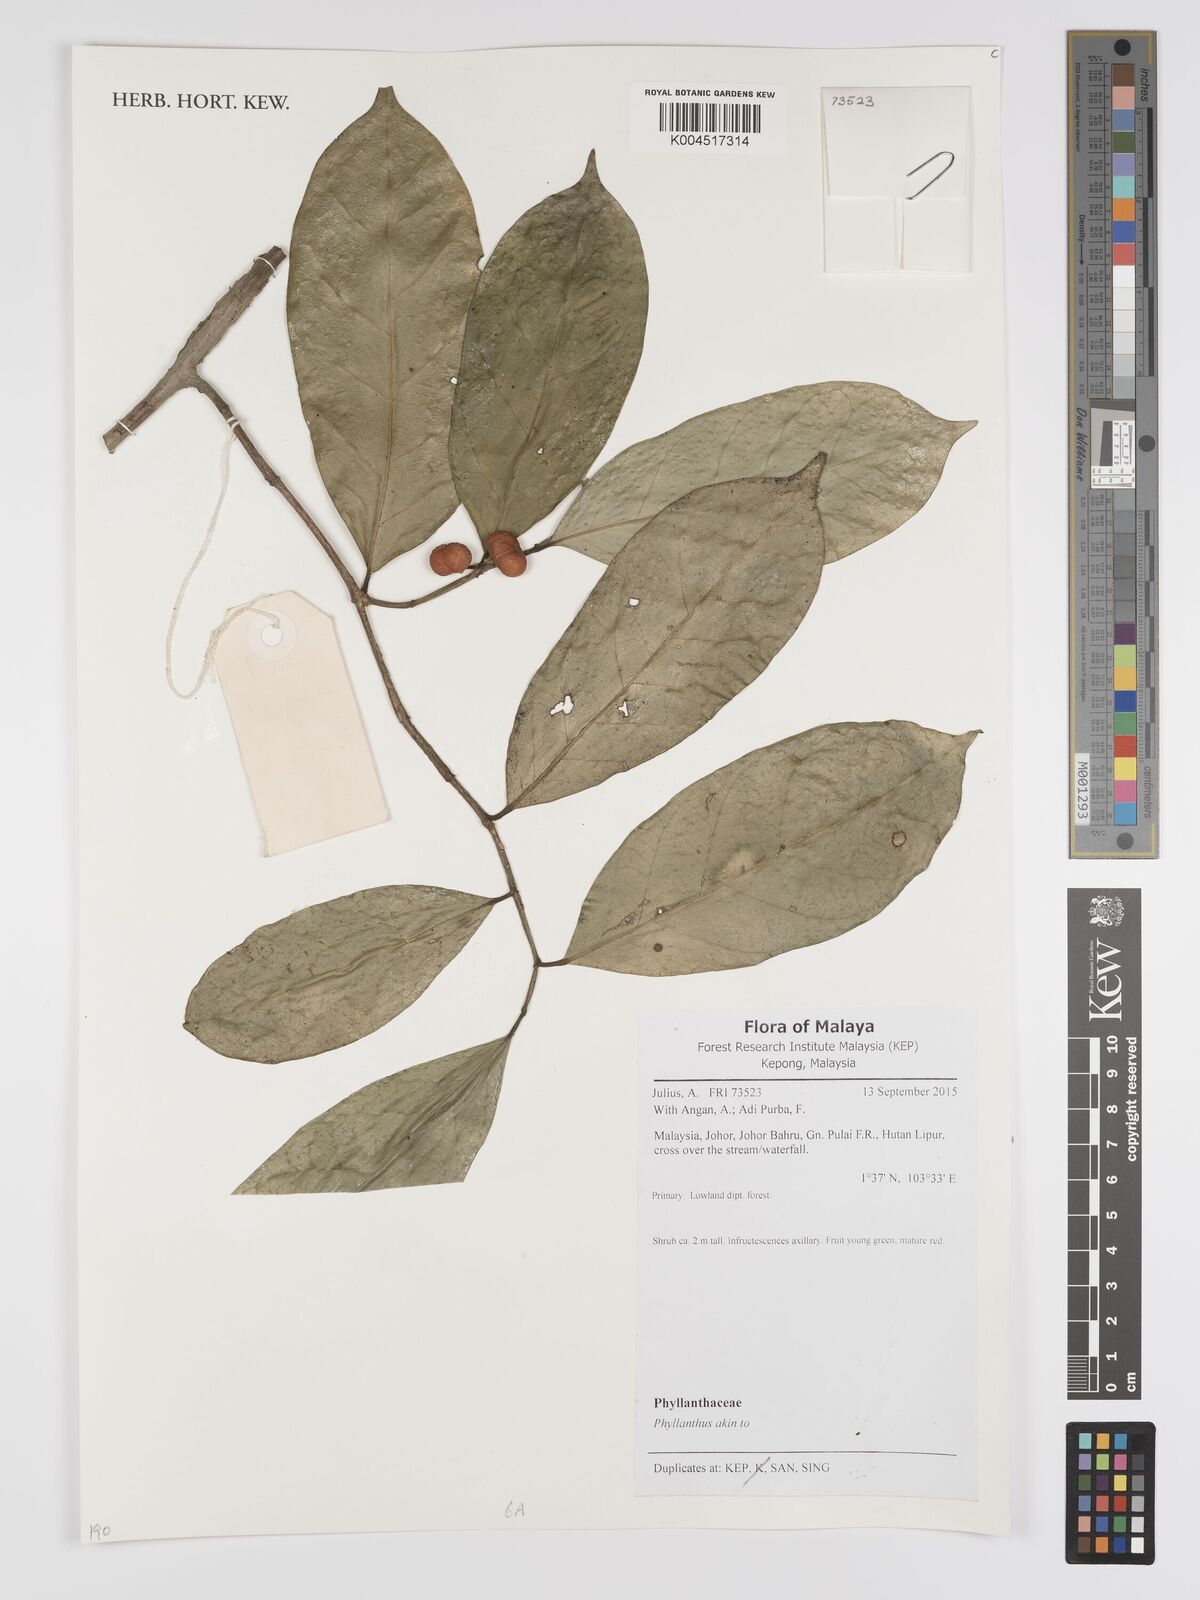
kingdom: Plantae
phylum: Tracheophyta
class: Magnoliopsida
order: Malpighiales
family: Phyllanthaceae
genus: Phyllanthus
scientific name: Phyllanthus
